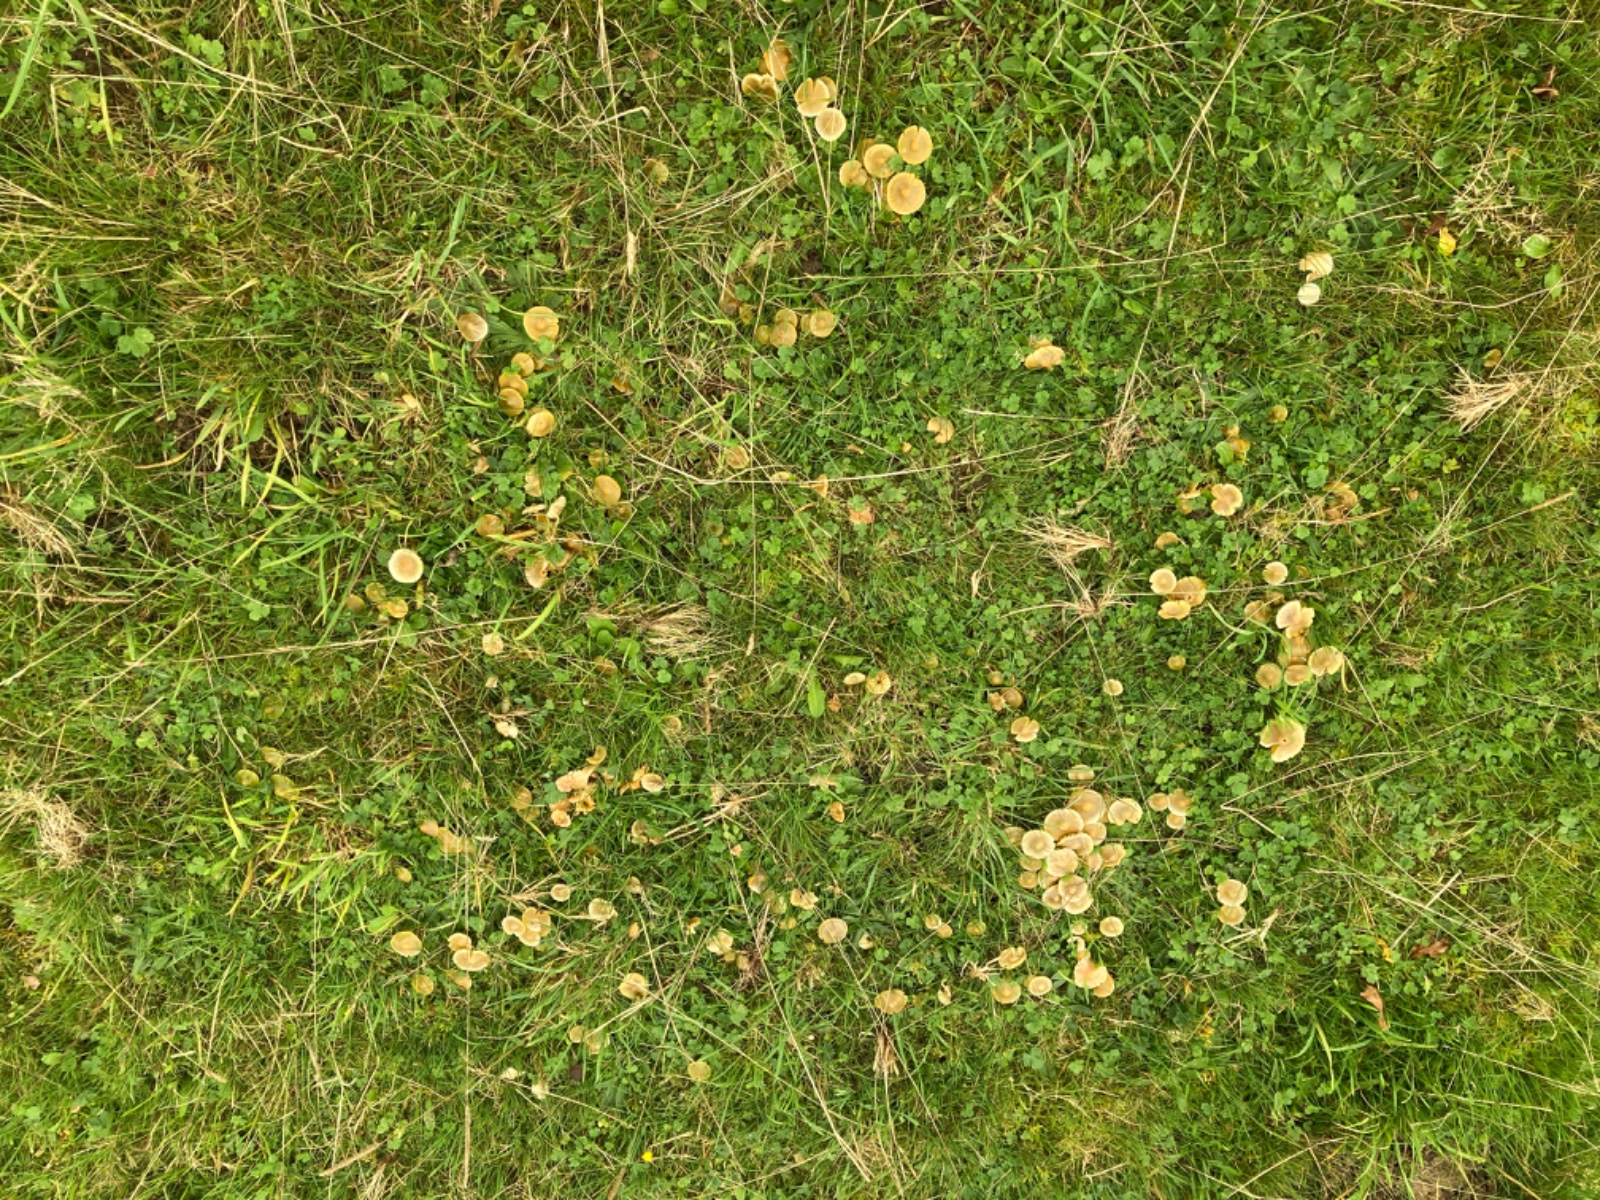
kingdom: Fungi
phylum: Basidiomycota
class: Agaricomycetes
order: Agaricales
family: Hygrophoraceae
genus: Gliophorus
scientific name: Gliophorus psittacinus
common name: papegøje-vokshat
